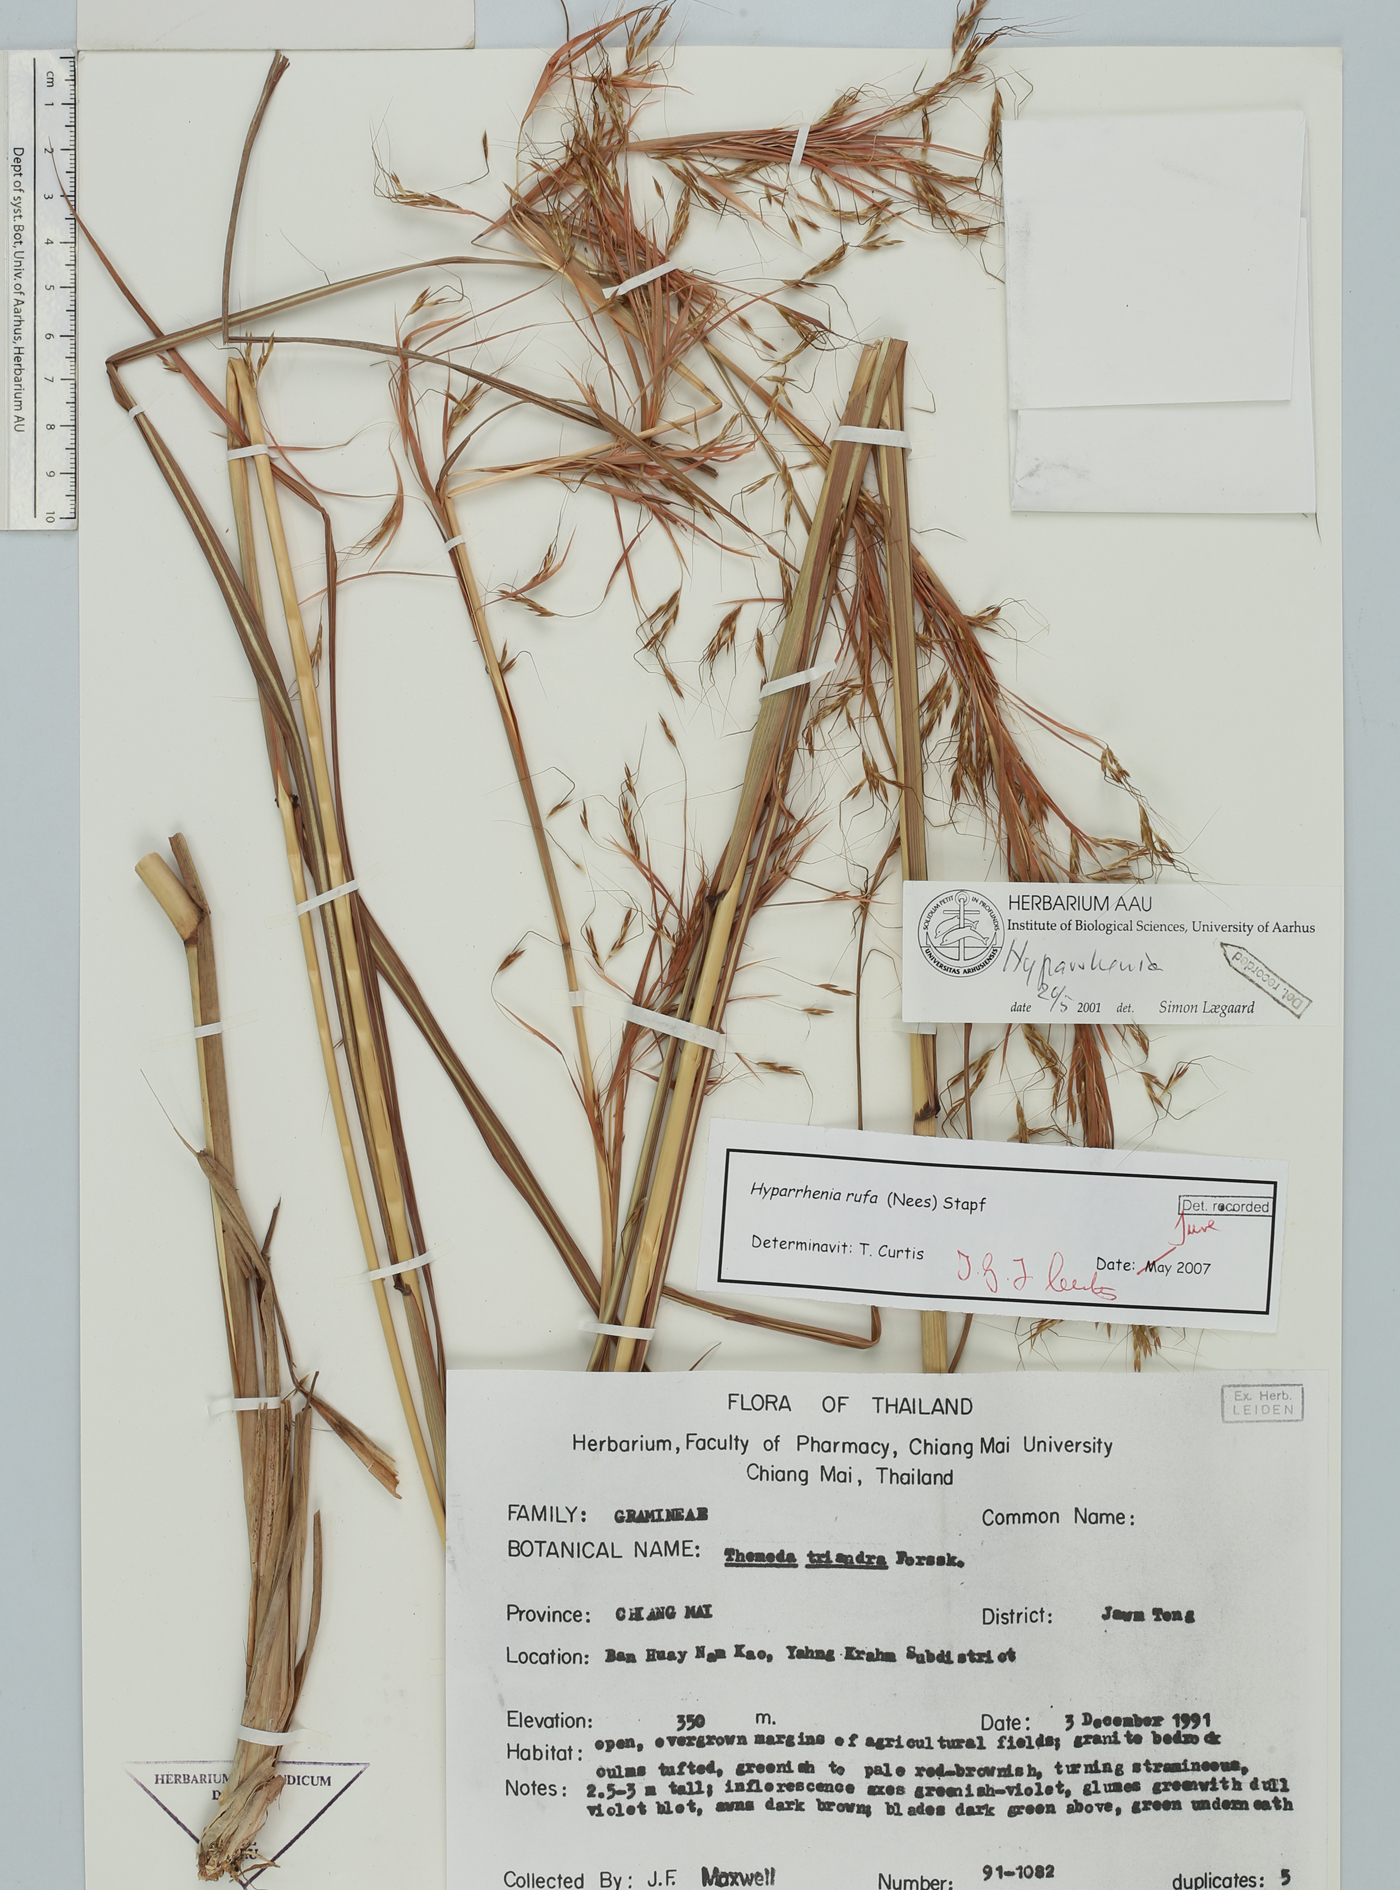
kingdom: Plantae
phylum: Tracheophyta
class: Liliopsida
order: Poales
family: Poaceae
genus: Hyparrhenia
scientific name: Hyparrhenia rufa
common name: Jaraguagrass
